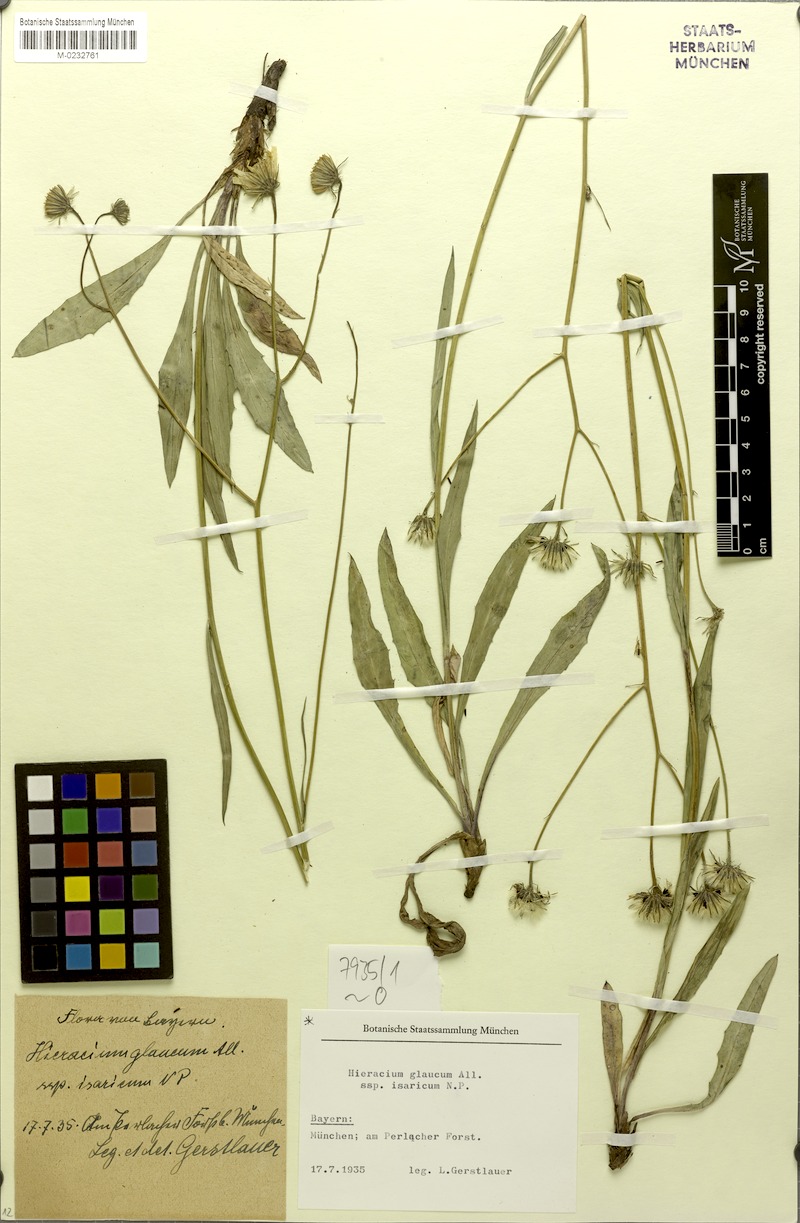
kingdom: Plantae
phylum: Tracheophyta
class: Magnoliopsida
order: Asterales
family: Asteraceae
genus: Hieracium
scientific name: Hieracium glaucum
